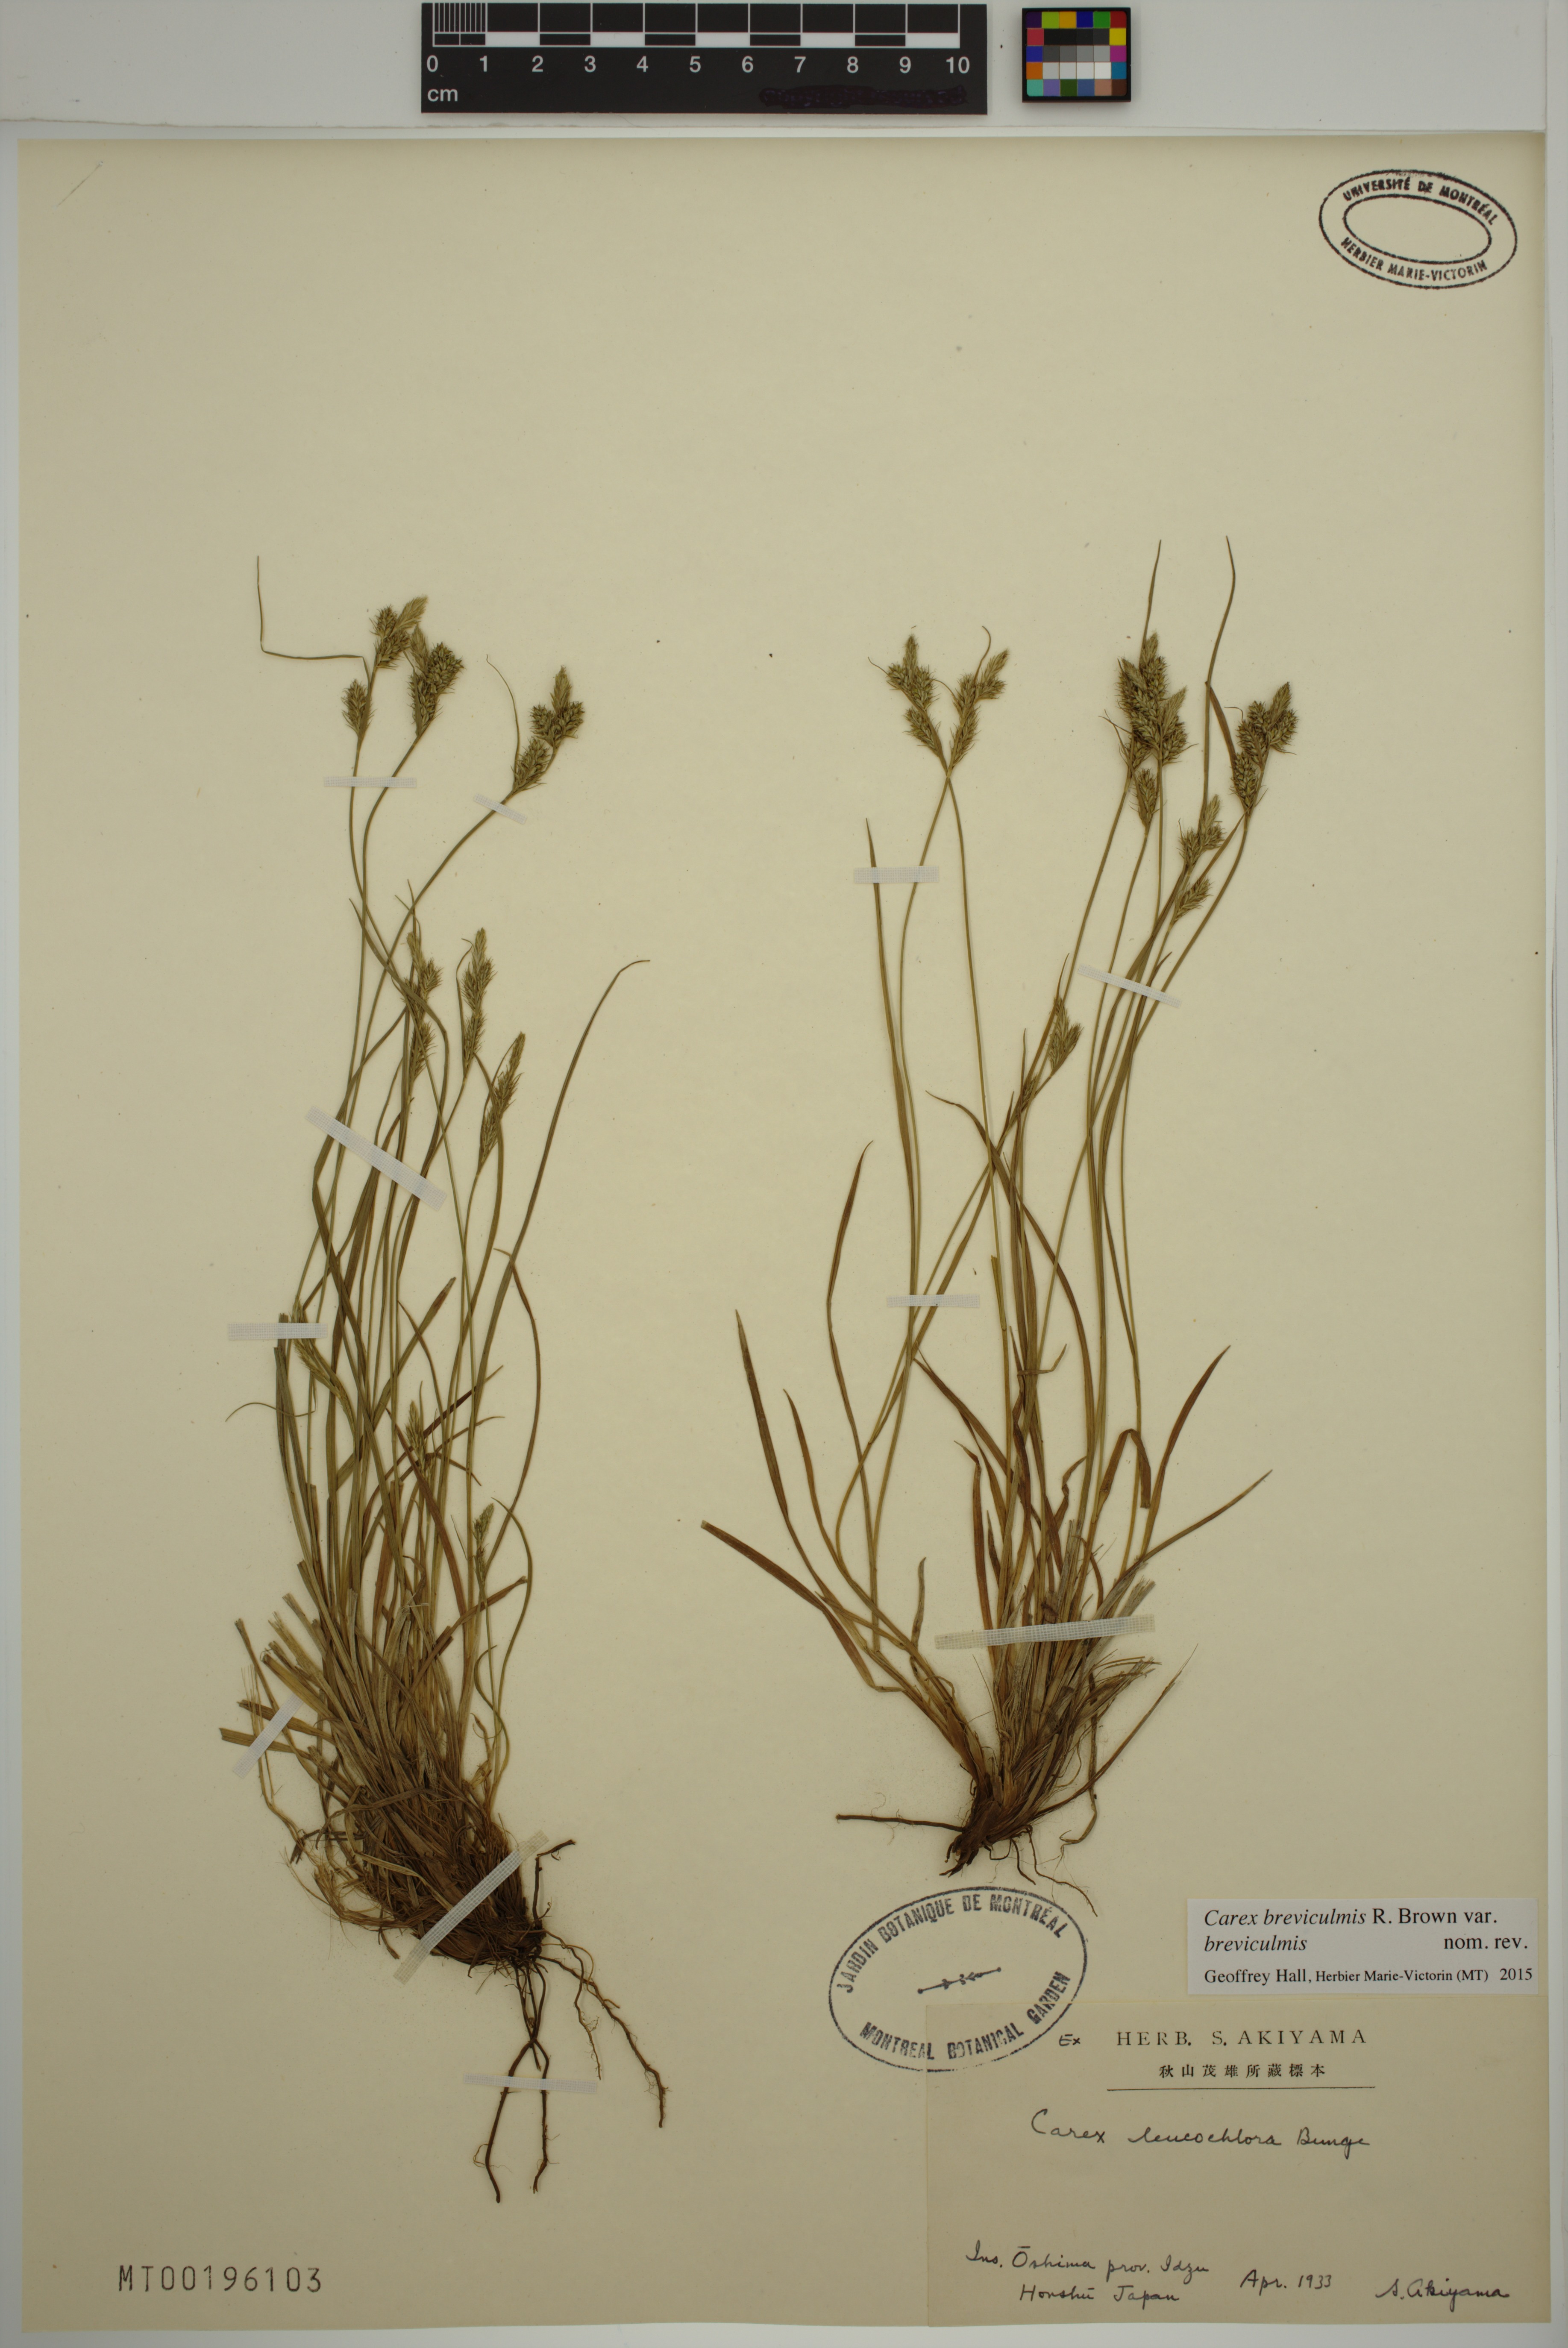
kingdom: Plantae
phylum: Tracheophyta
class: Liliopsida
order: Poales
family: Cyperaceae
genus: Carex
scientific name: Carex breviculmis
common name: Asian shortstem sedge
